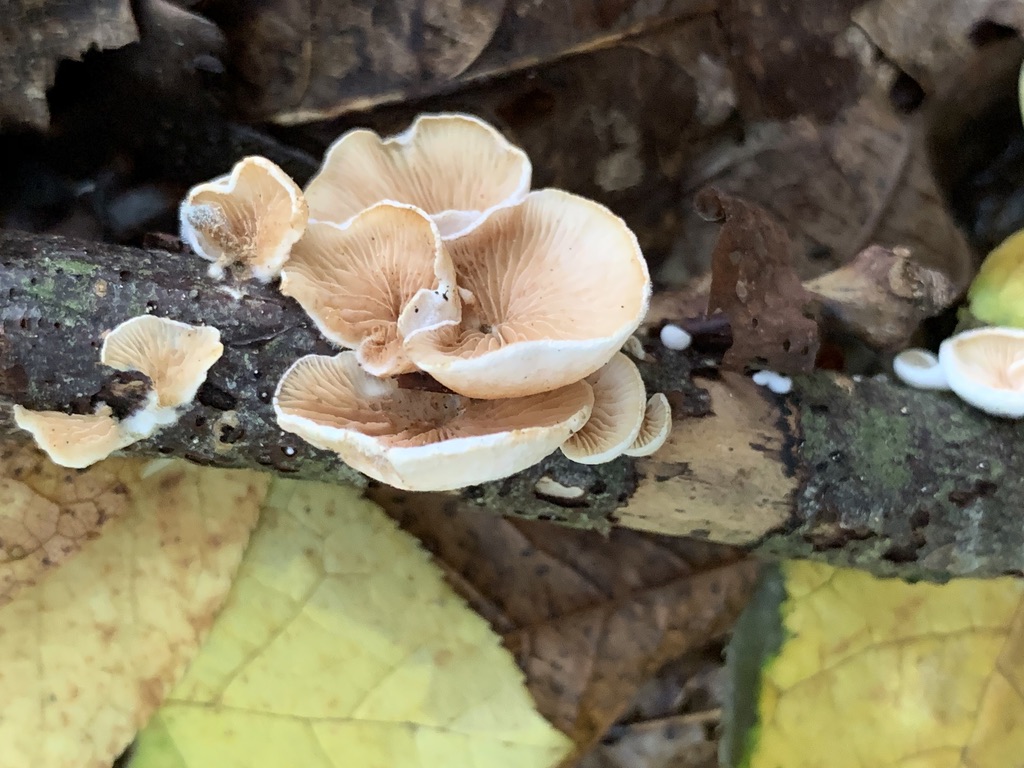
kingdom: Fungi
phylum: Basidiomycota
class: Agaricomycetes
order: Agaricales
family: Crepidotaceae
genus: Crepidotus
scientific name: Crepidotus variabilis
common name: forskelligformet muslingesvamp
